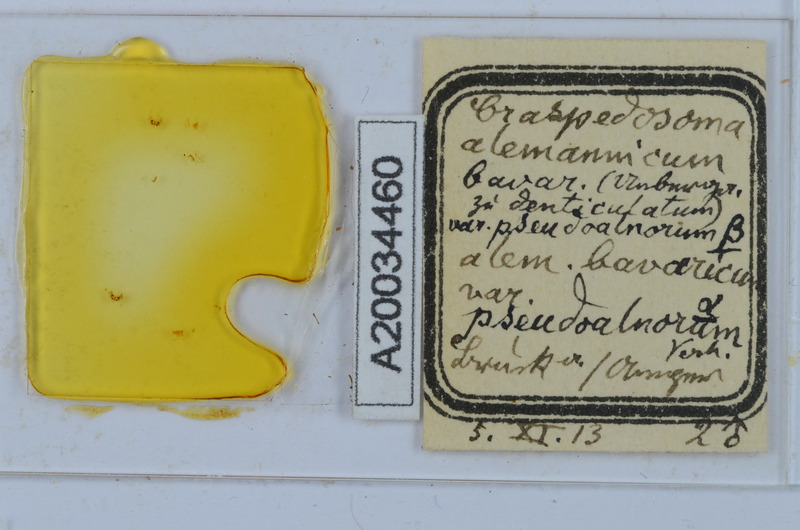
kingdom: Animalia
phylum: Arthropoda
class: Diplopoda
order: Chordeumatida
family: Craspedosomatidae
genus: Craspedosoma
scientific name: Craspedosoma rawlinsii
